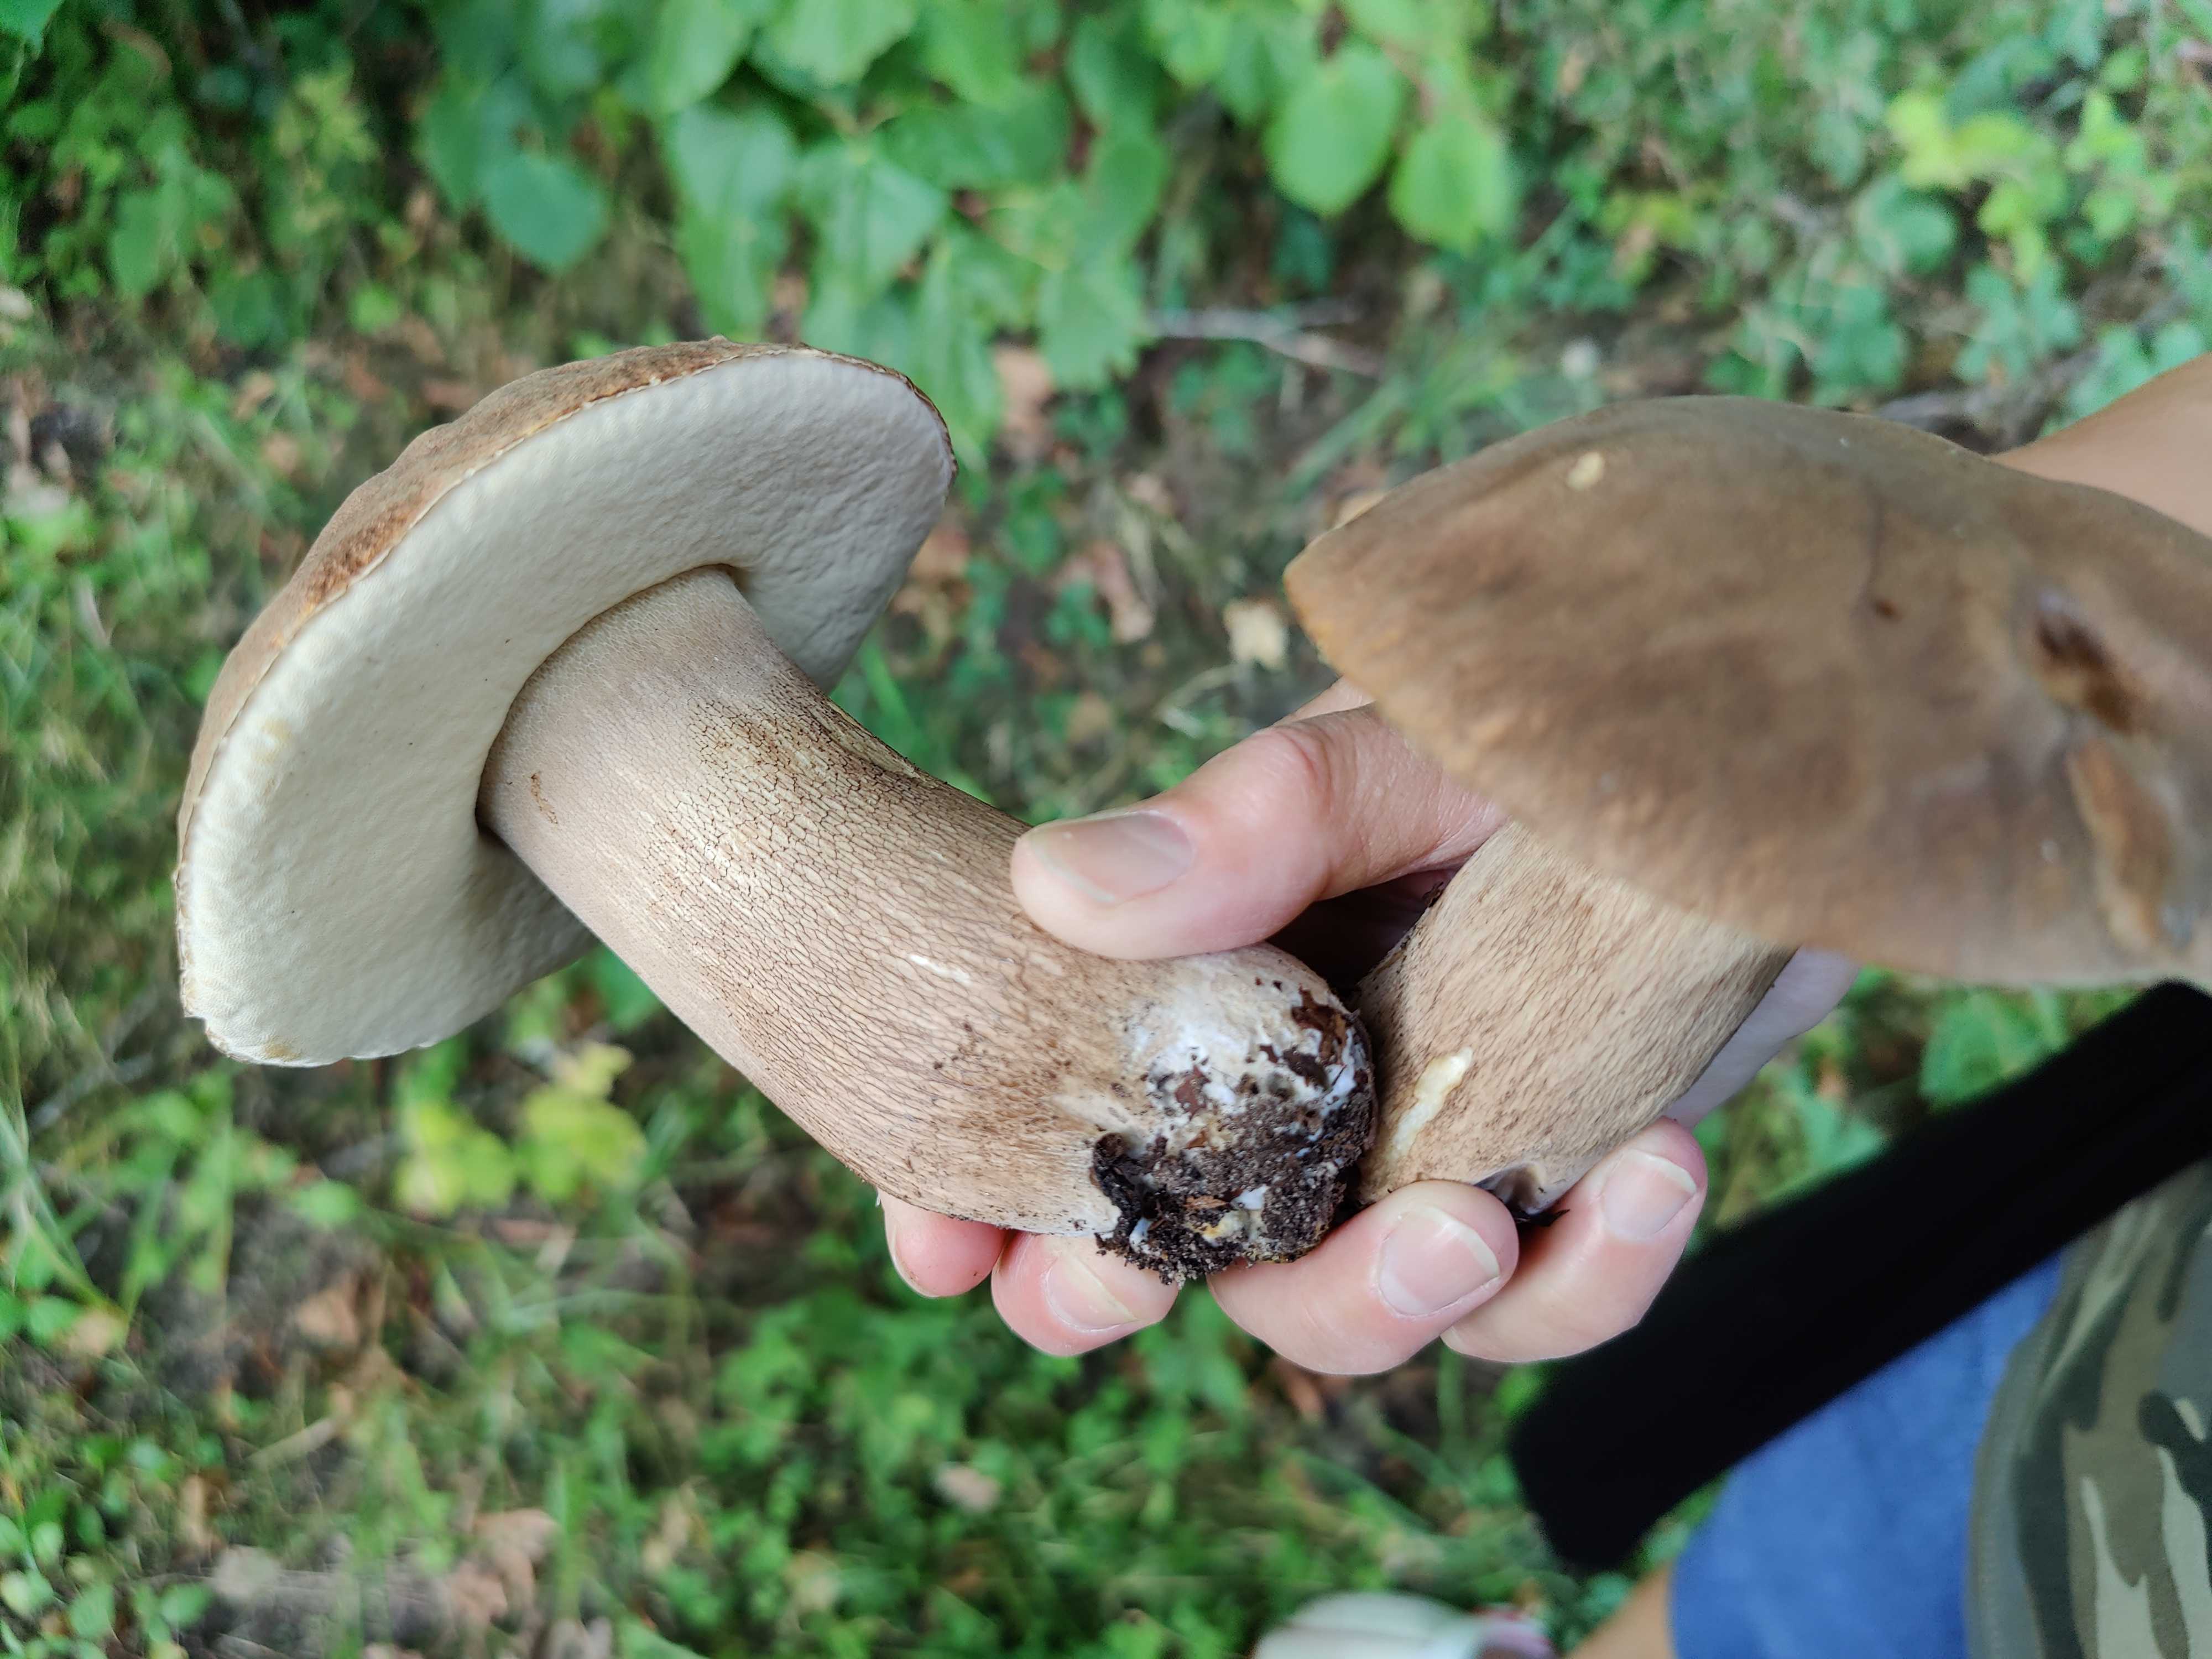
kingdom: Fungi
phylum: Basidiomycota
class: Agaricomycetes
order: Boletales
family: Boletaceae
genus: Boletus
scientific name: Boletus reticulatus
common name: sommer-rørhat
